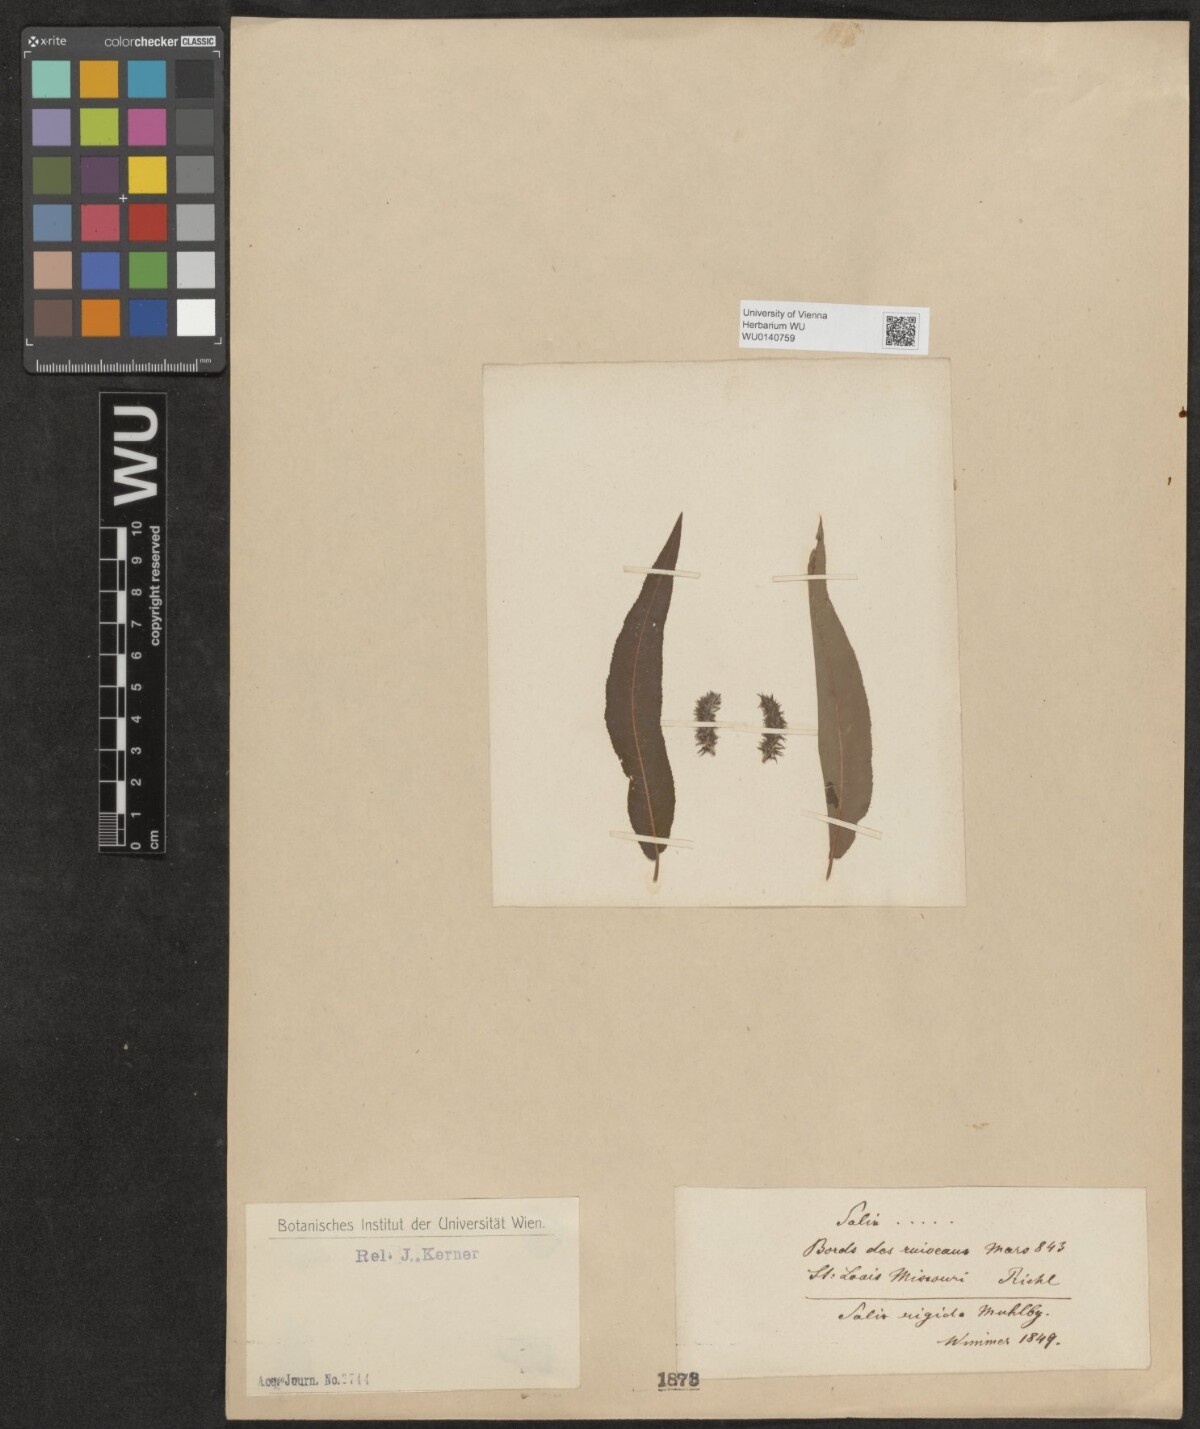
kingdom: Plantae
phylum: Tracheophyta
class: Magnoliopsida
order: Malpighiales
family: Salicaceae
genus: Salix
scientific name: Salix
